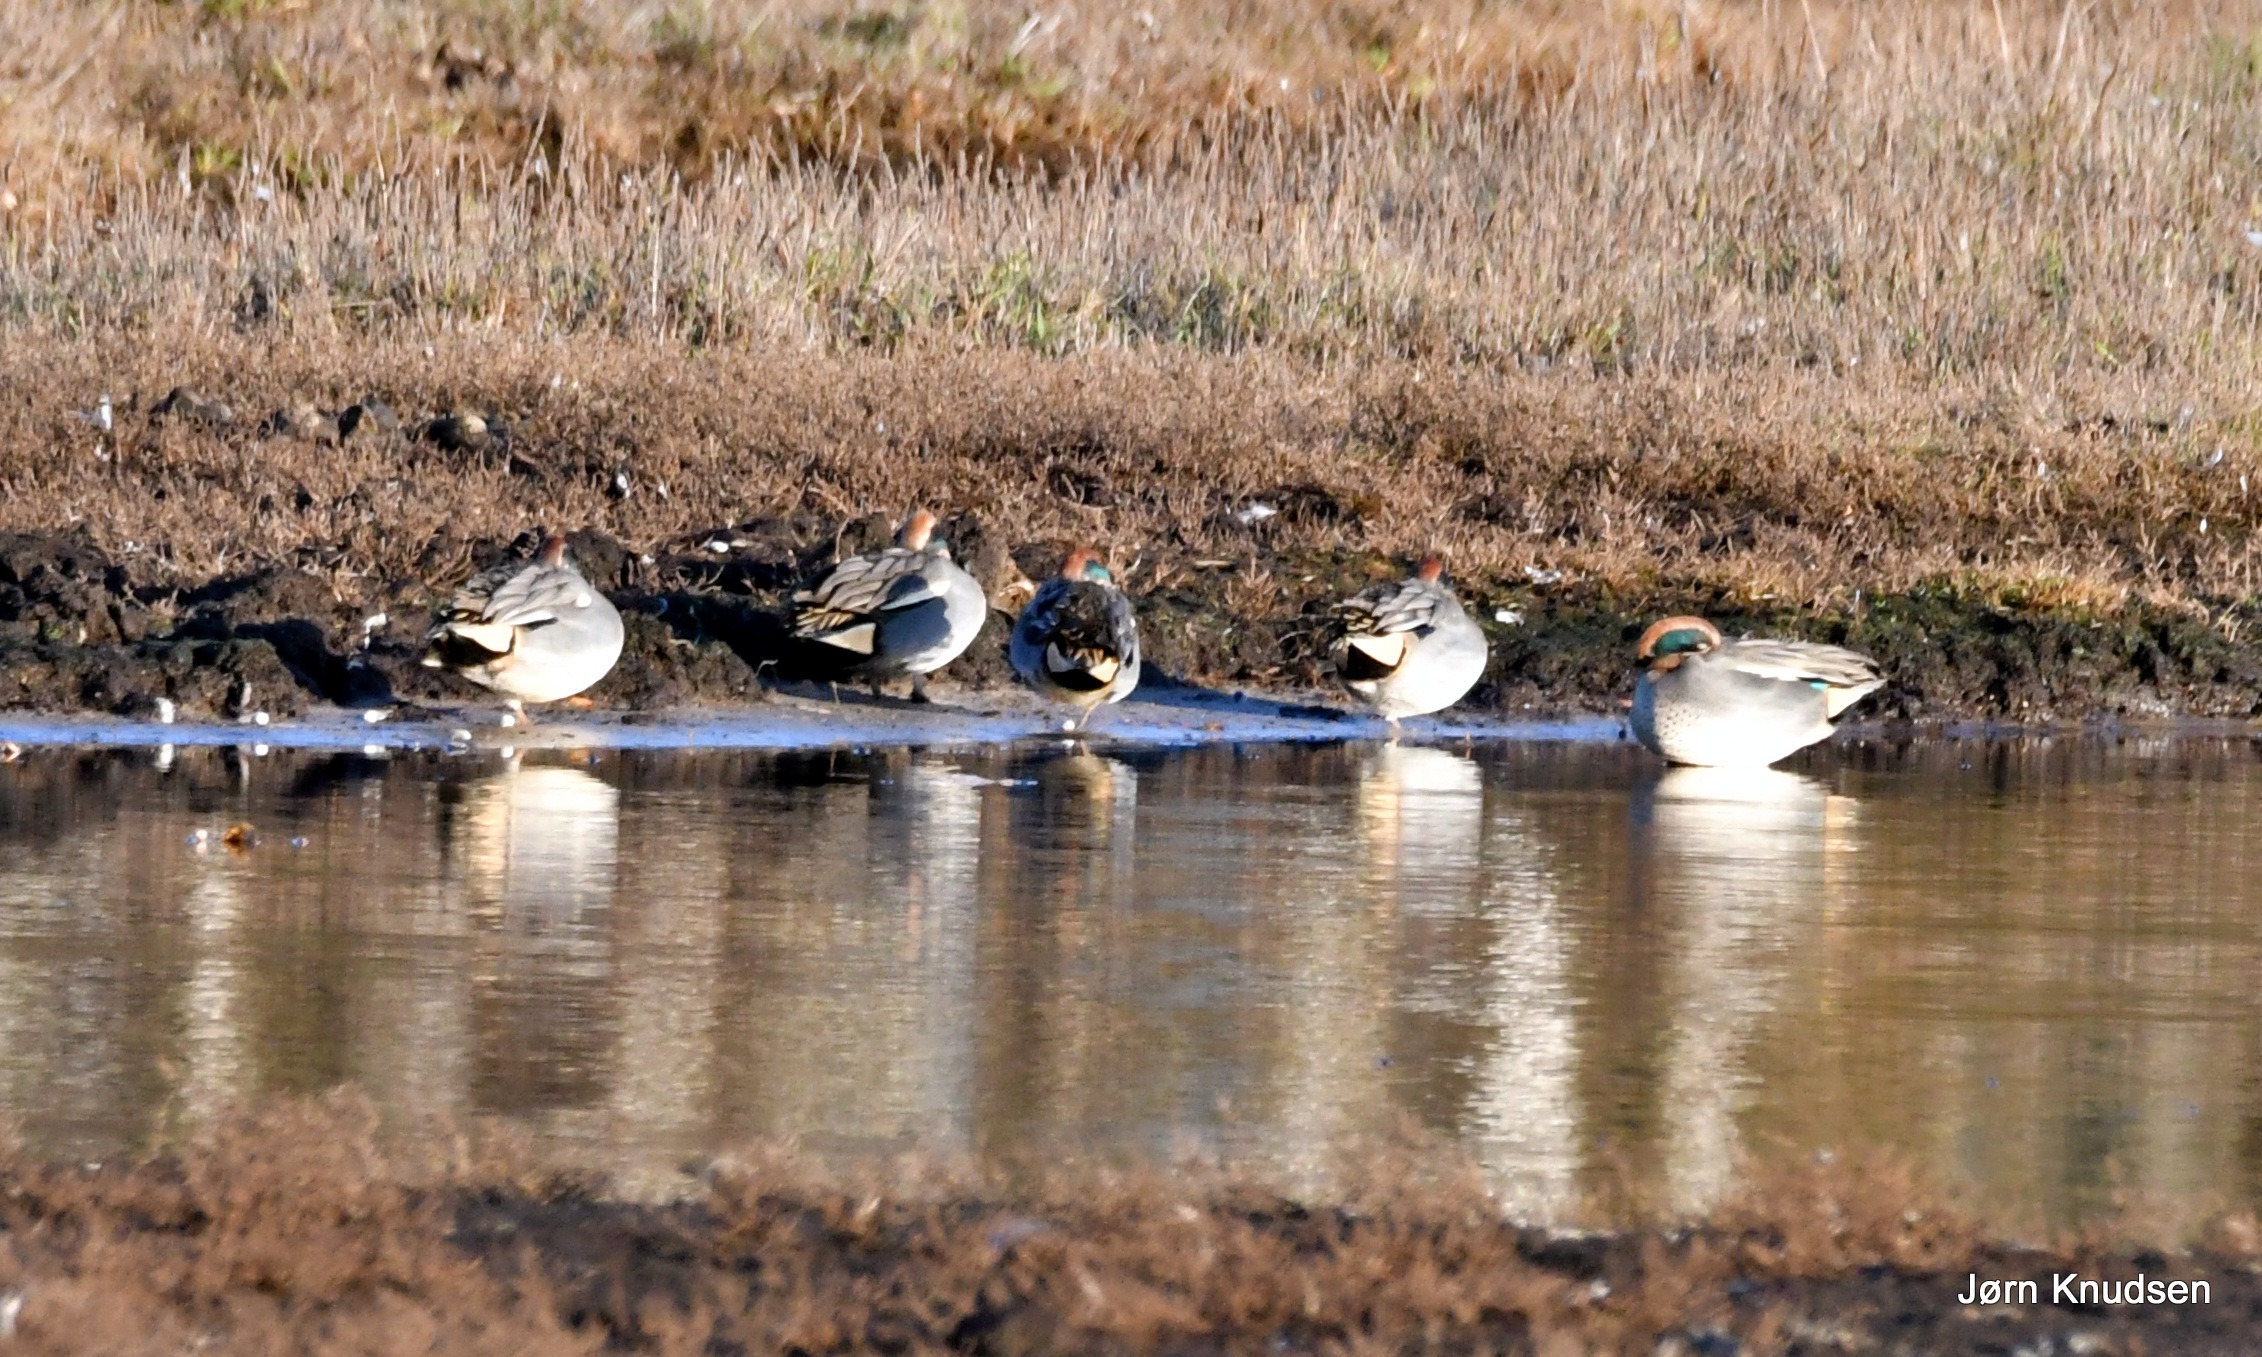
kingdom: Animalia
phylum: Chordata
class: Aves
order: Anseriformes
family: Anatidae
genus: Anas
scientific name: Anas crecca
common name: Krikand
